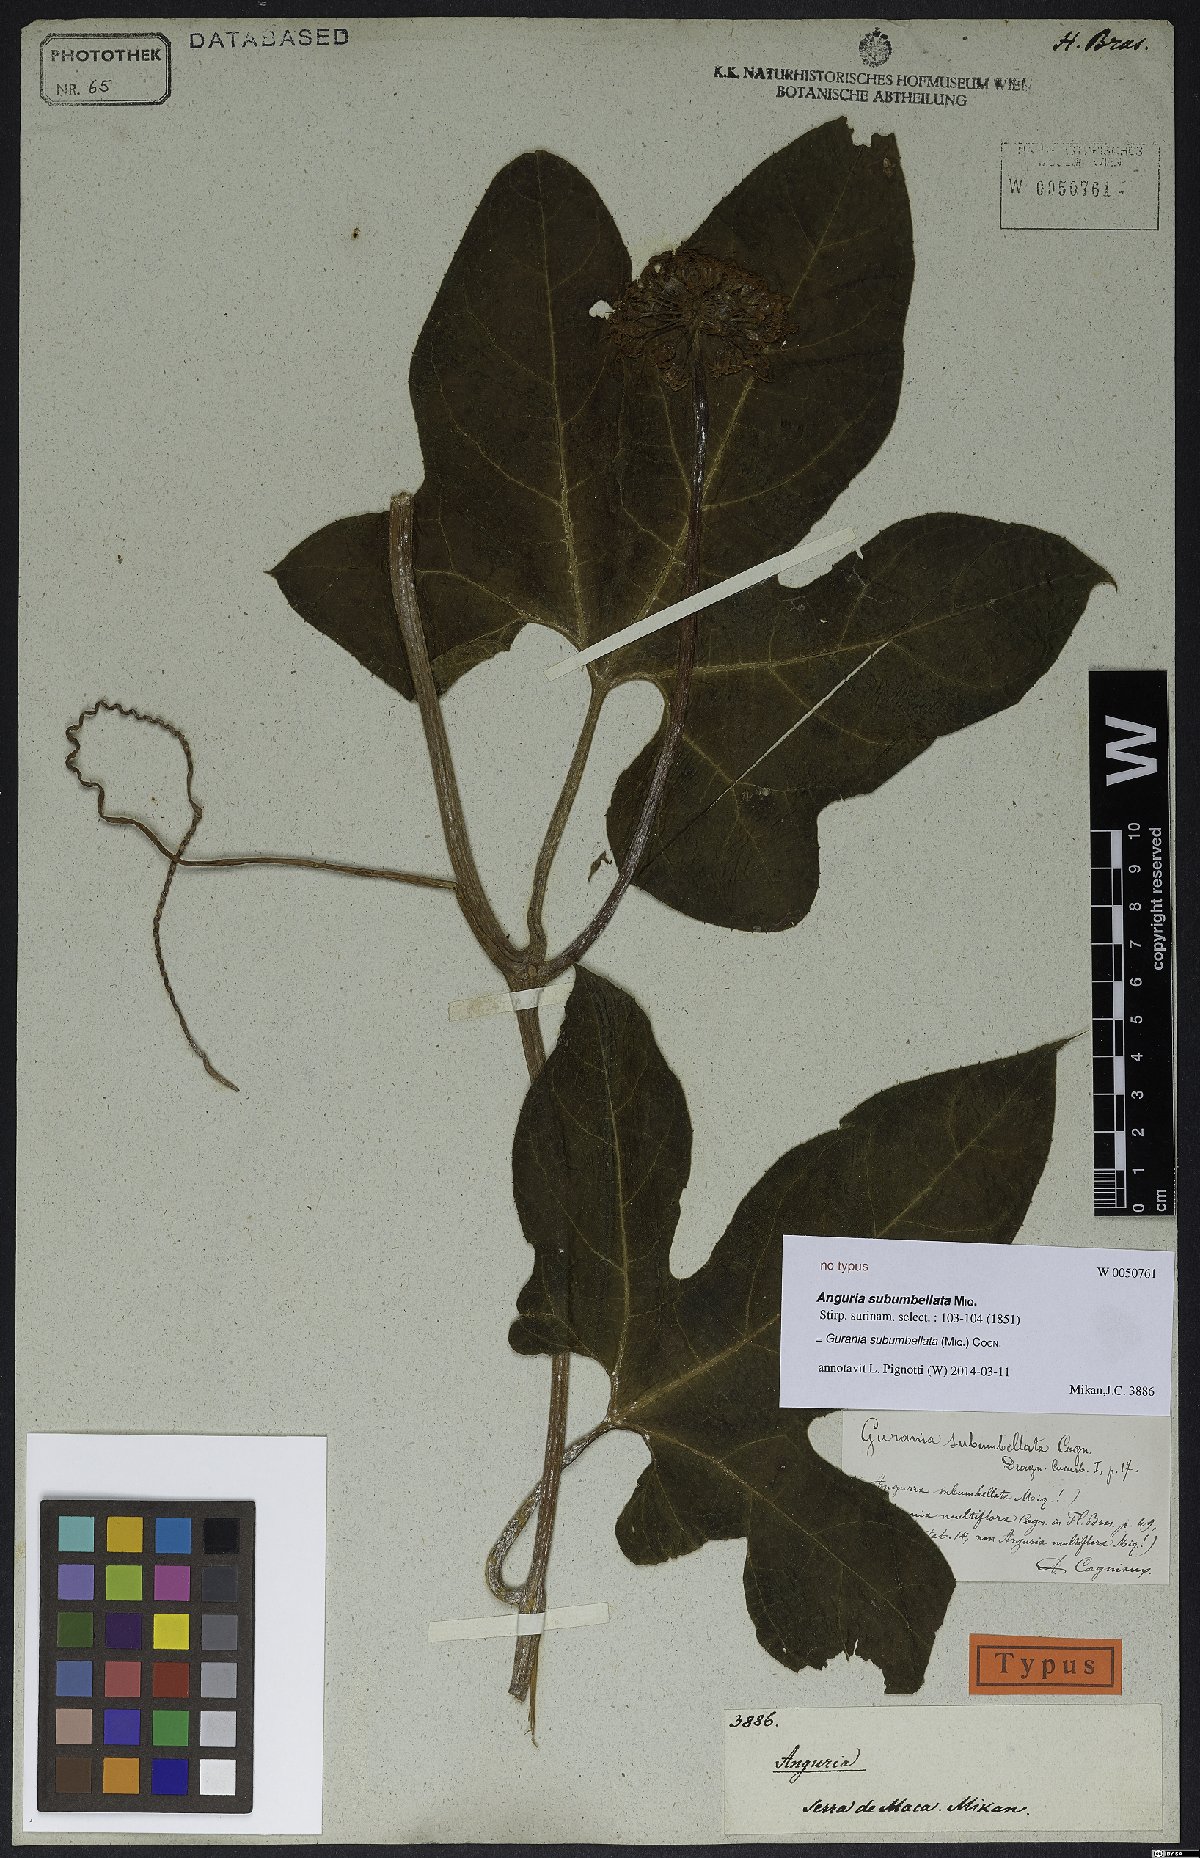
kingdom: Plantae
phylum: Tracheophyta
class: Magnoliopsida
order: Cucurbitales
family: Cucurbitaceae
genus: Gurania
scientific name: Gurania subumbellata
